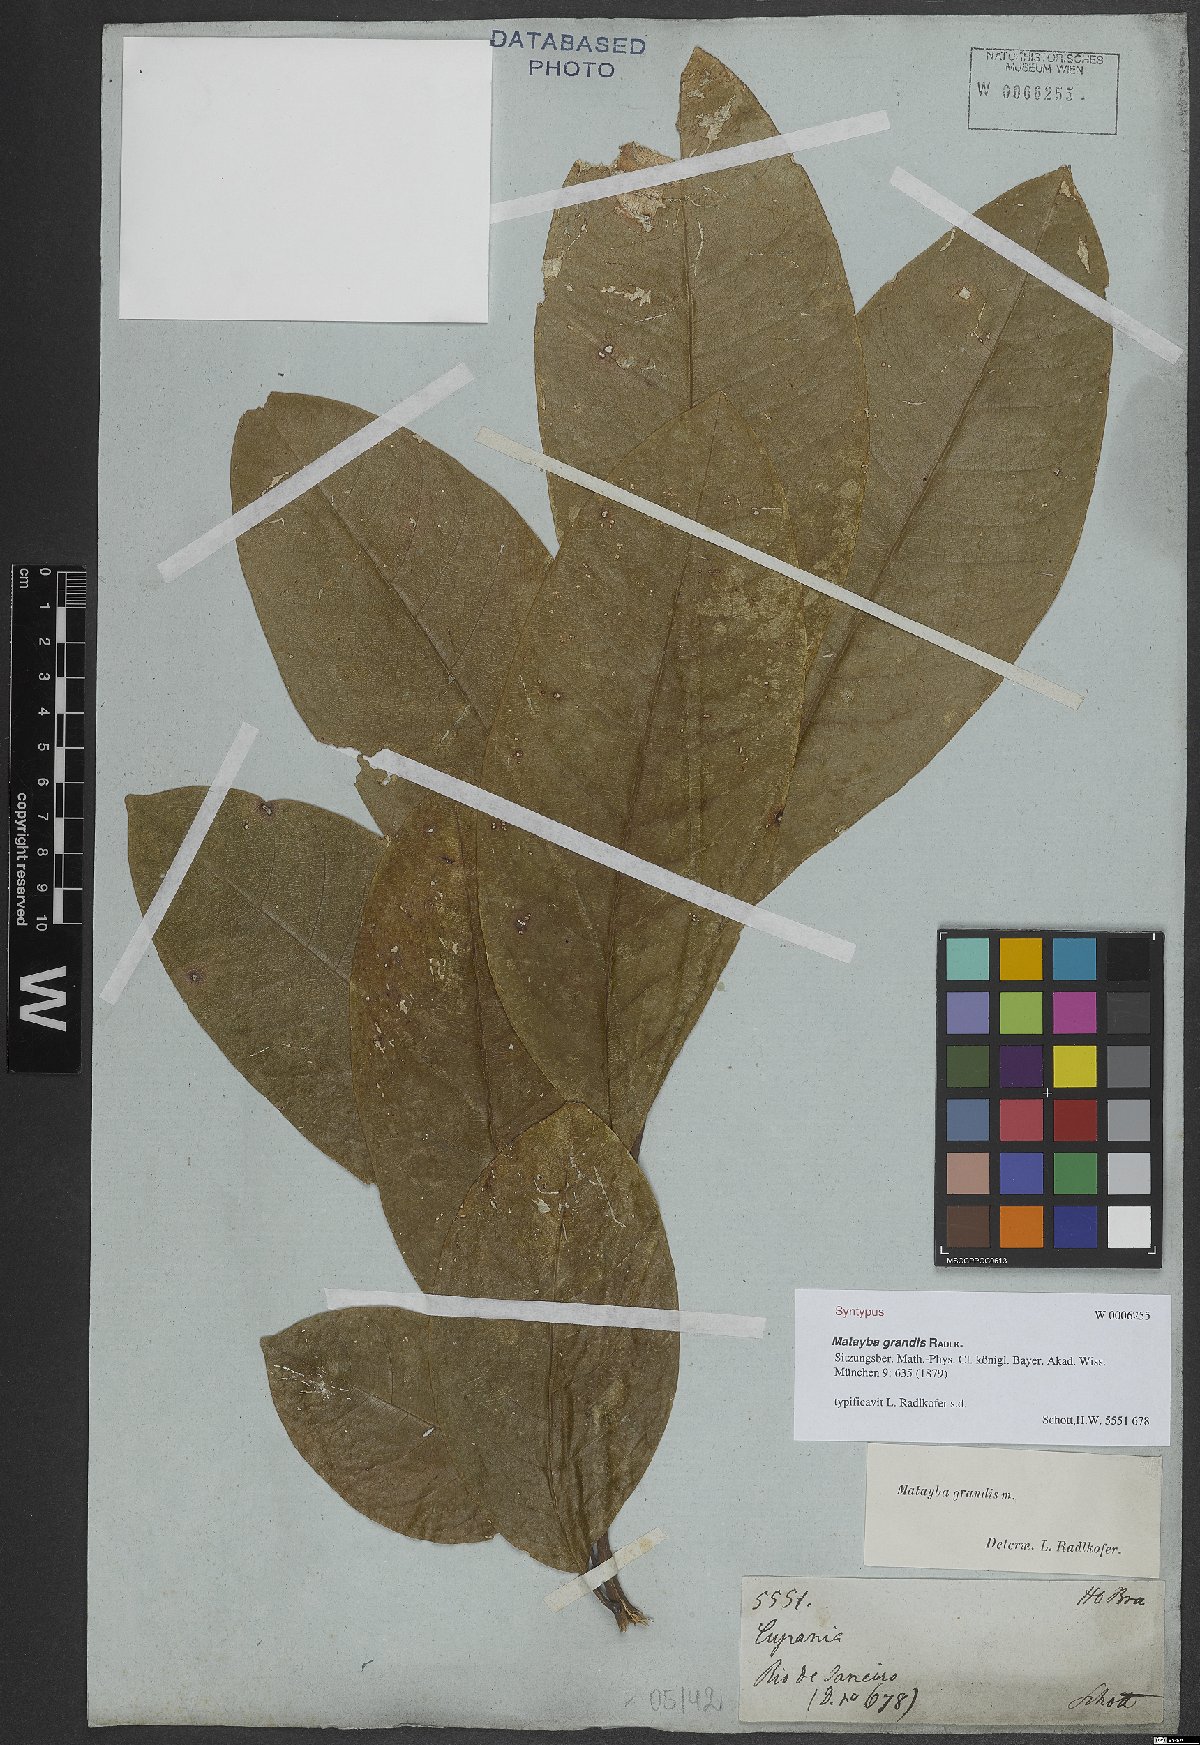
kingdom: Plantae
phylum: Tracheophyta
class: Magnoliopsida
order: Sapindales
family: Sapindaceae
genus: Matayba
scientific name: Matayba grandis
